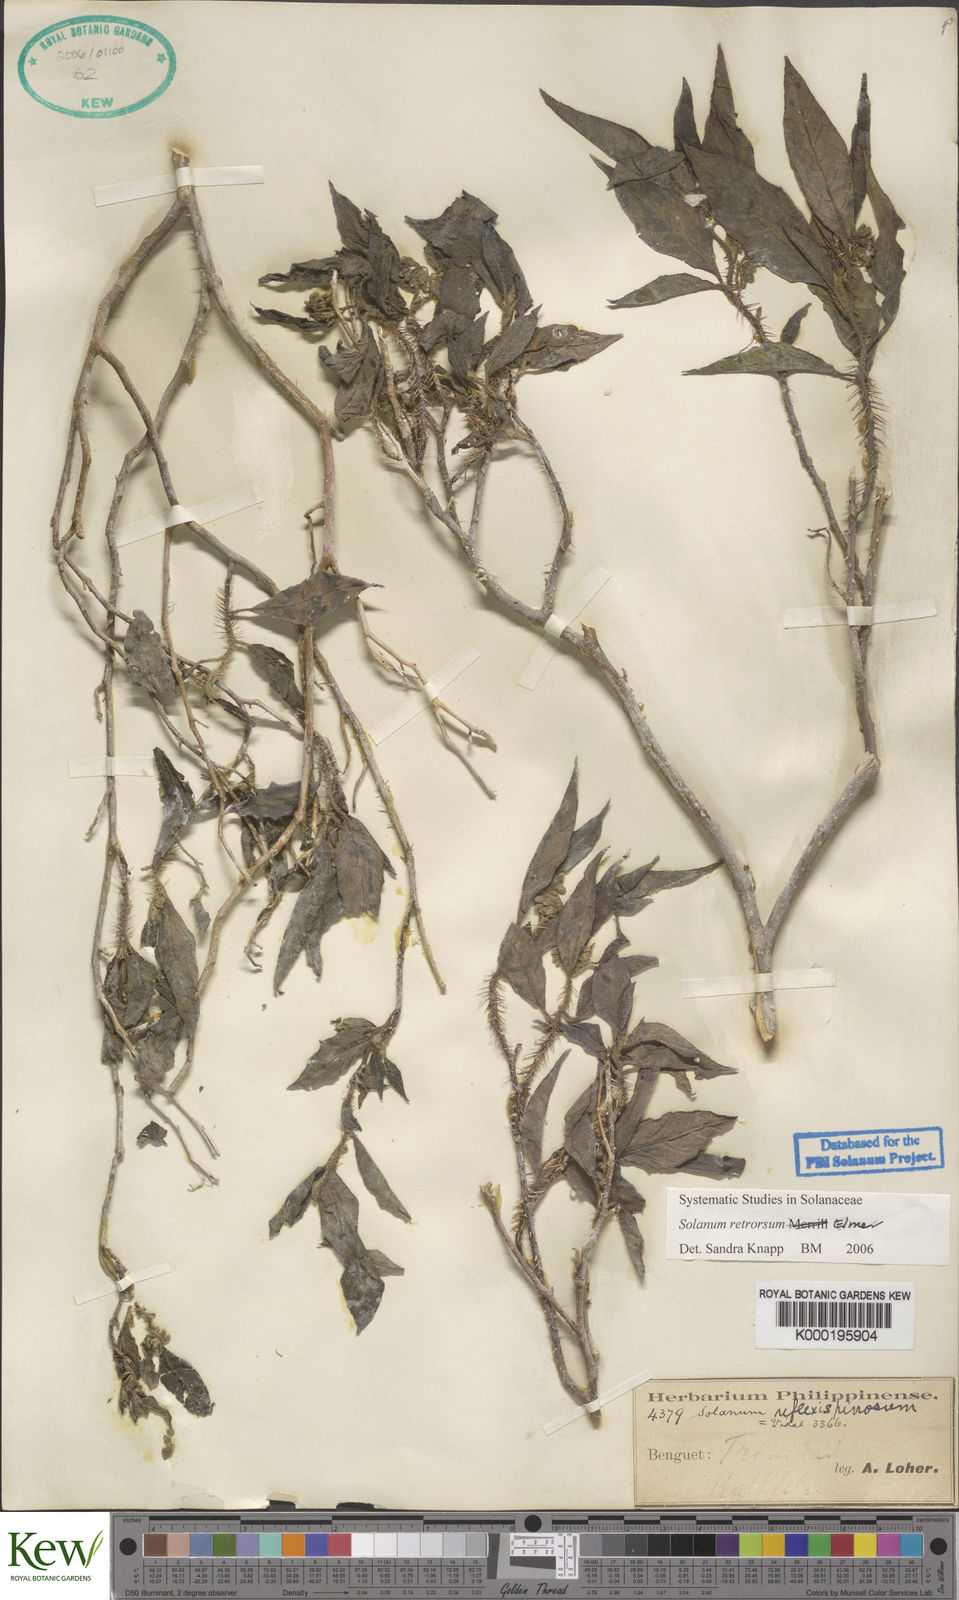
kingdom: Plantae
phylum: Tracheophyta
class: Magnoliopsida
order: Solanales
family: Solanaceae
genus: Solanum
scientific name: Solanum retrorsum
